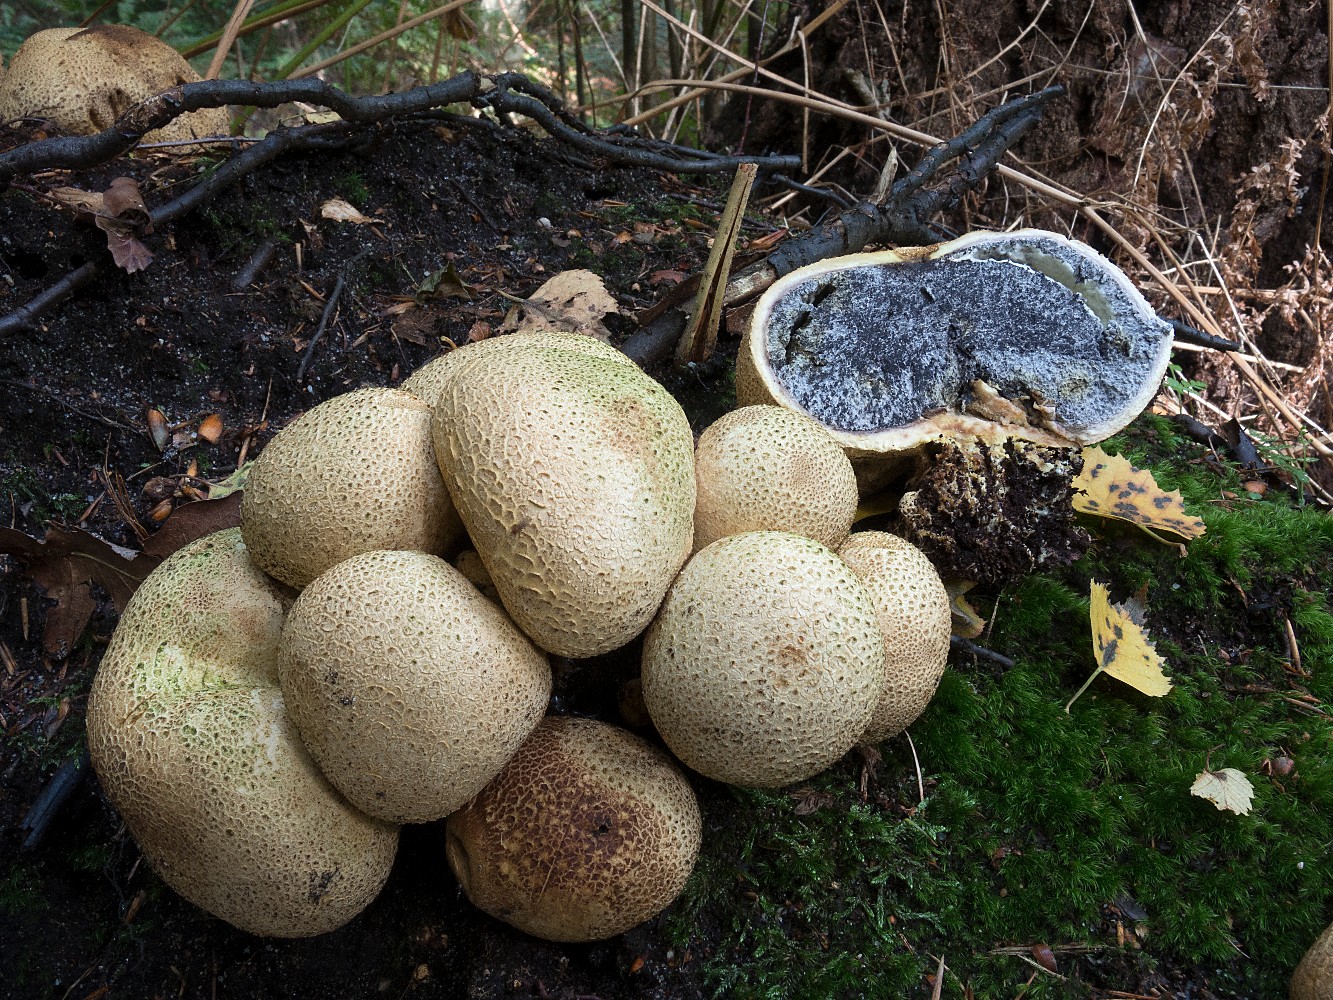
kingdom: Fungi
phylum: Basidiomycota
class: Agaricomycetes
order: Boletales
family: Sclerodermataceae
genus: Scleroderma
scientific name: Scleroderma citrinum
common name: almindelig bruskbold
